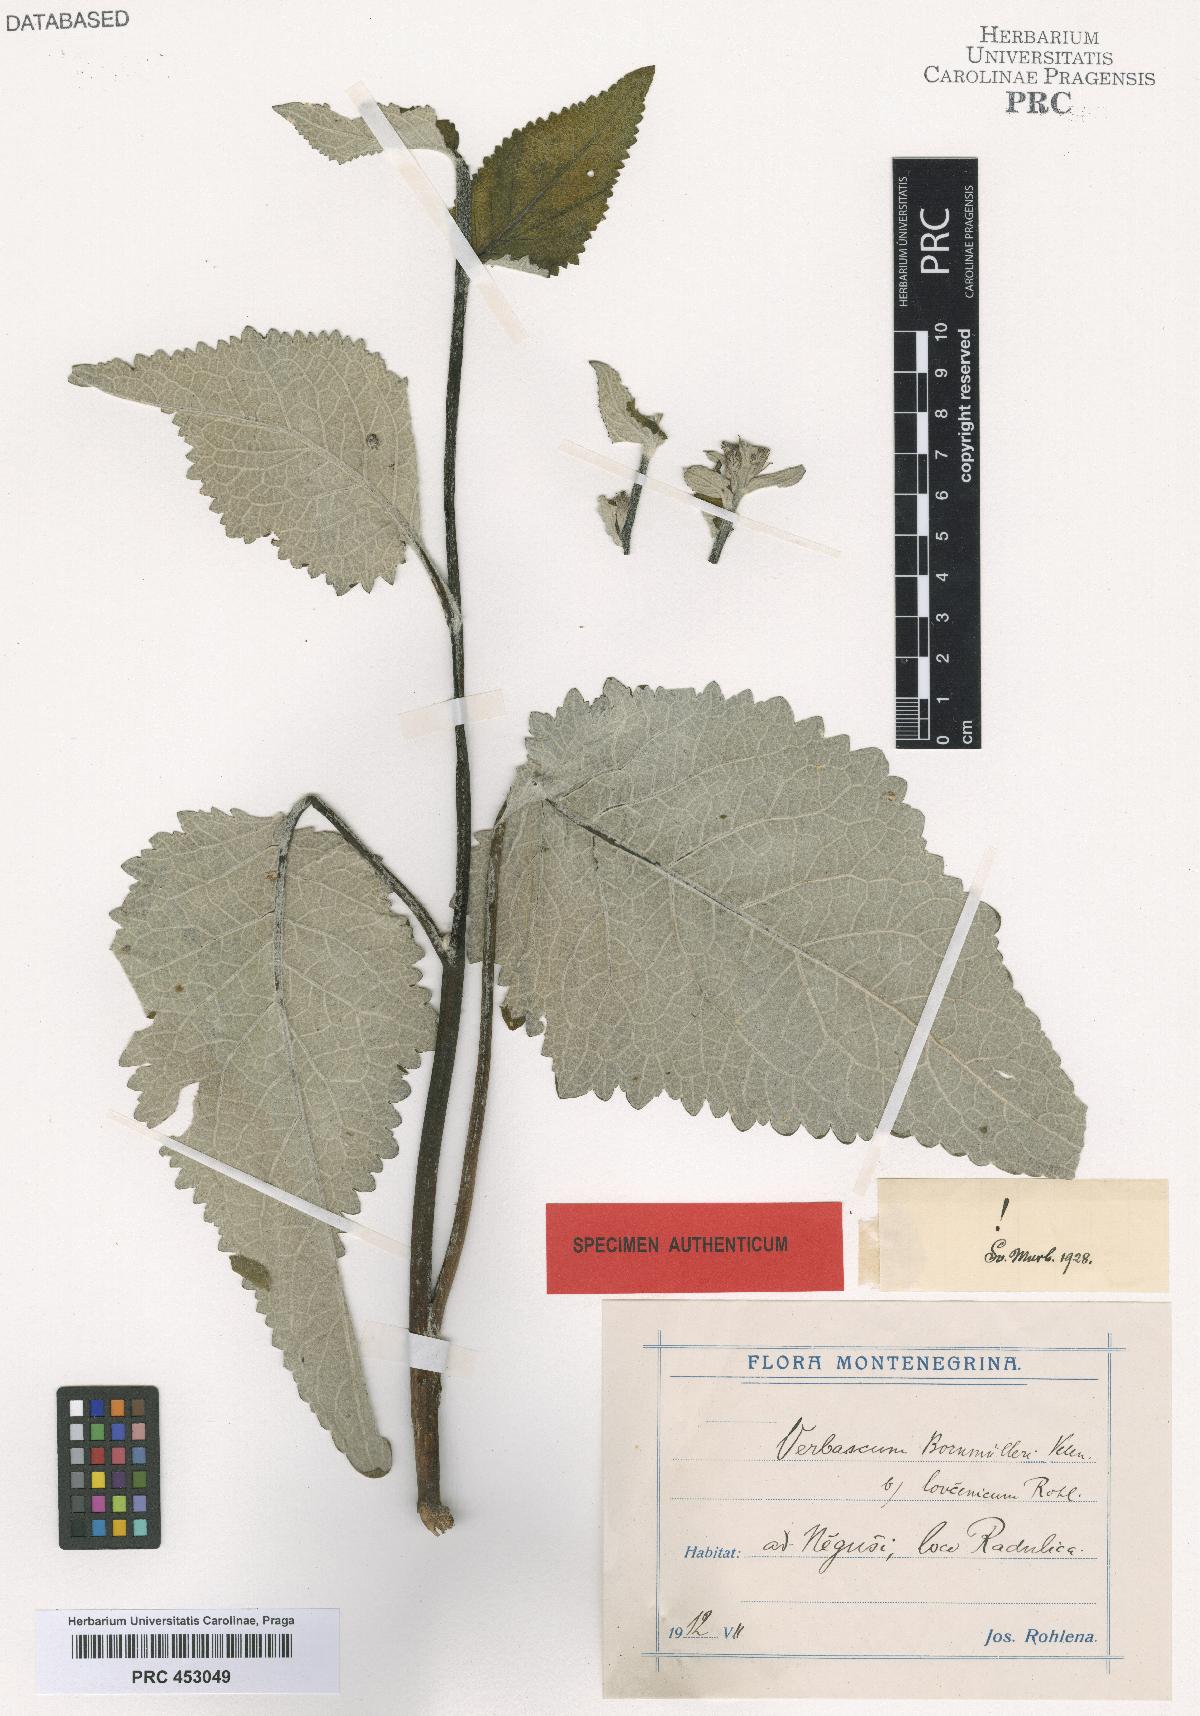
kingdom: Plantae
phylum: Tracheophyta
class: Magnoliopsida
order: Lamiales
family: Scrophulariaceae
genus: Verbascum
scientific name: Verbascum nigrum
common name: Dark mullein
